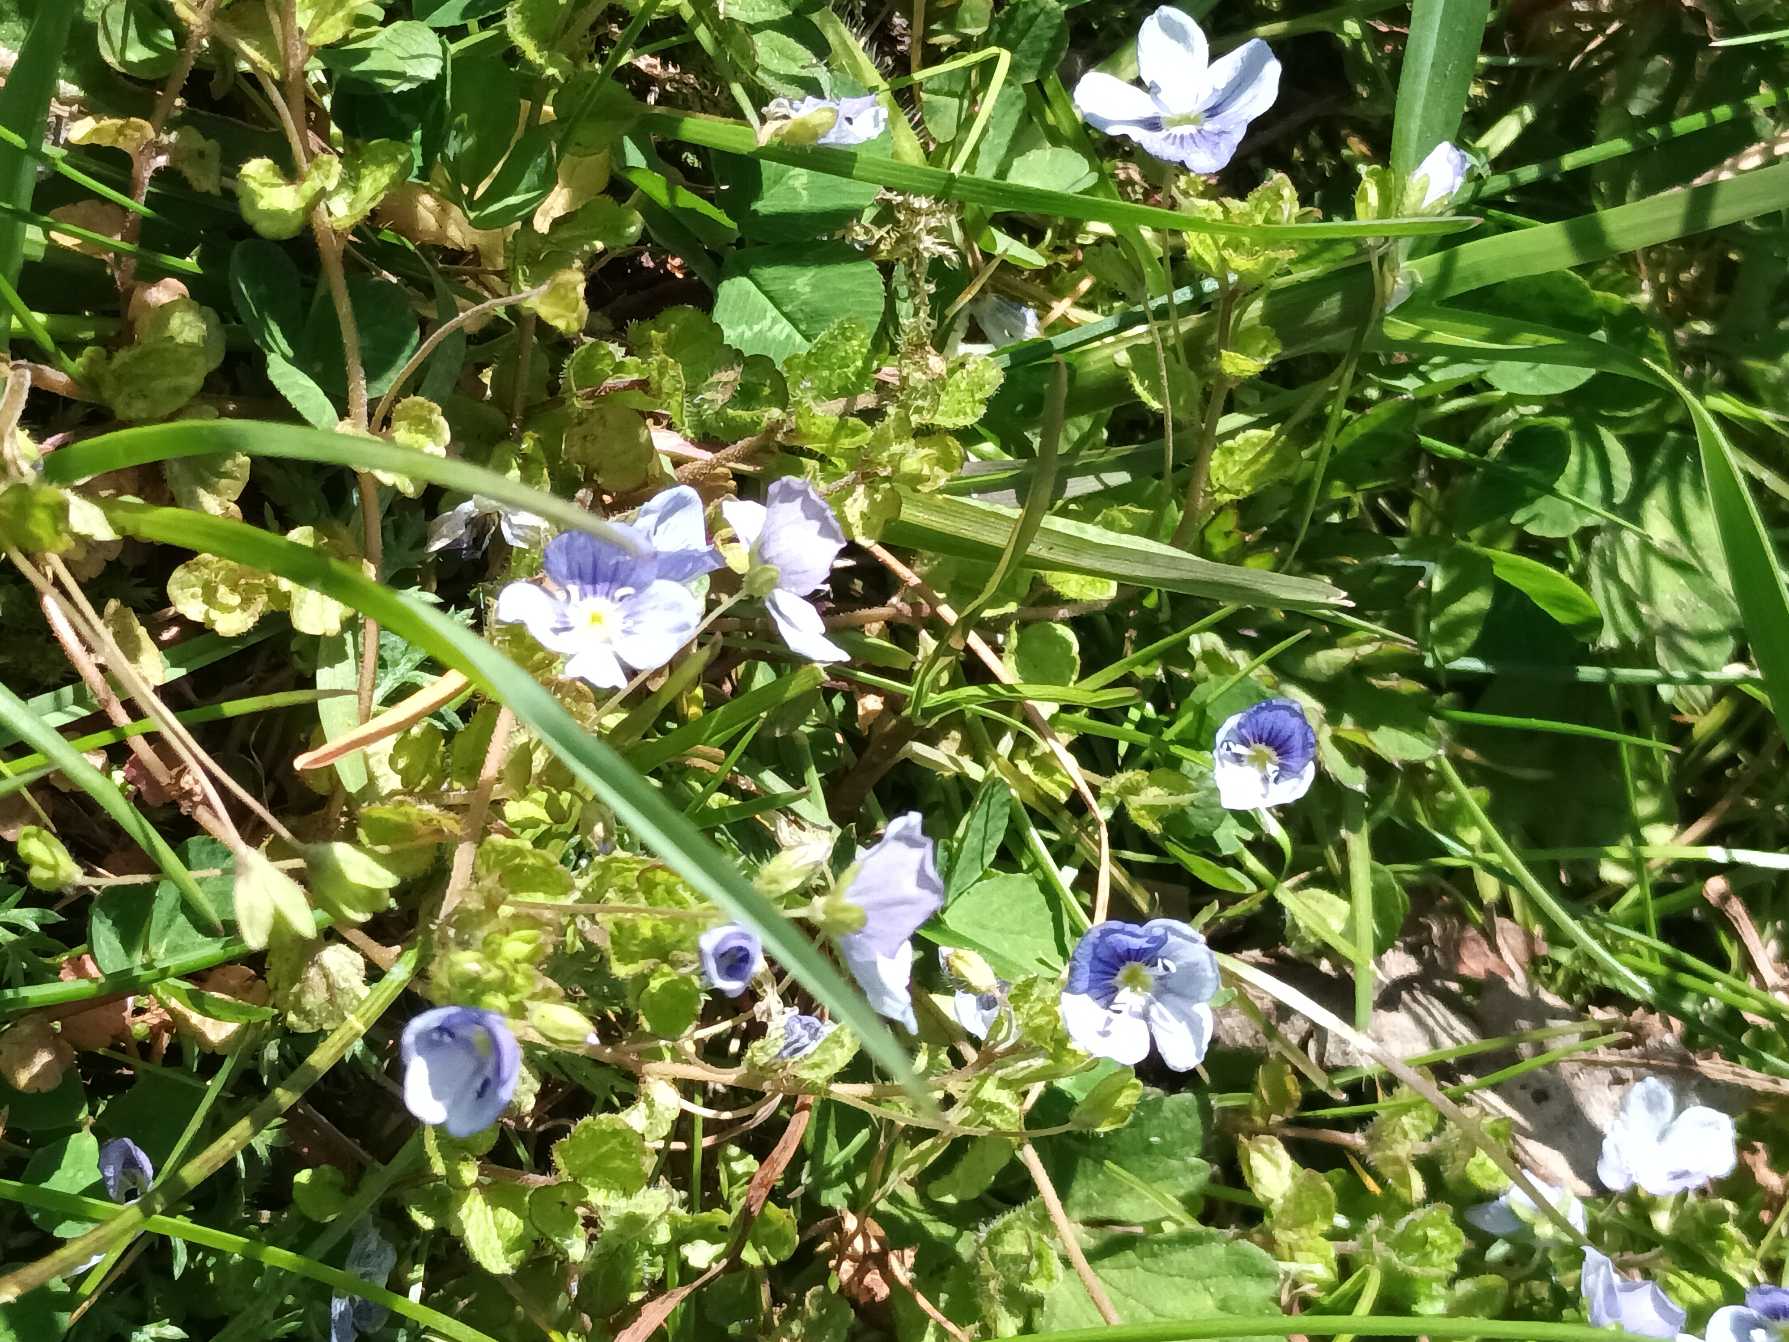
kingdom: Plantae
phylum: Tracheophyta
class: Magnoliopsida
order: Lamiales
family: Plantaginaceae
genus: Veronica
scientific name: Veronica filiformis
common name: Tråd-ærenpris
